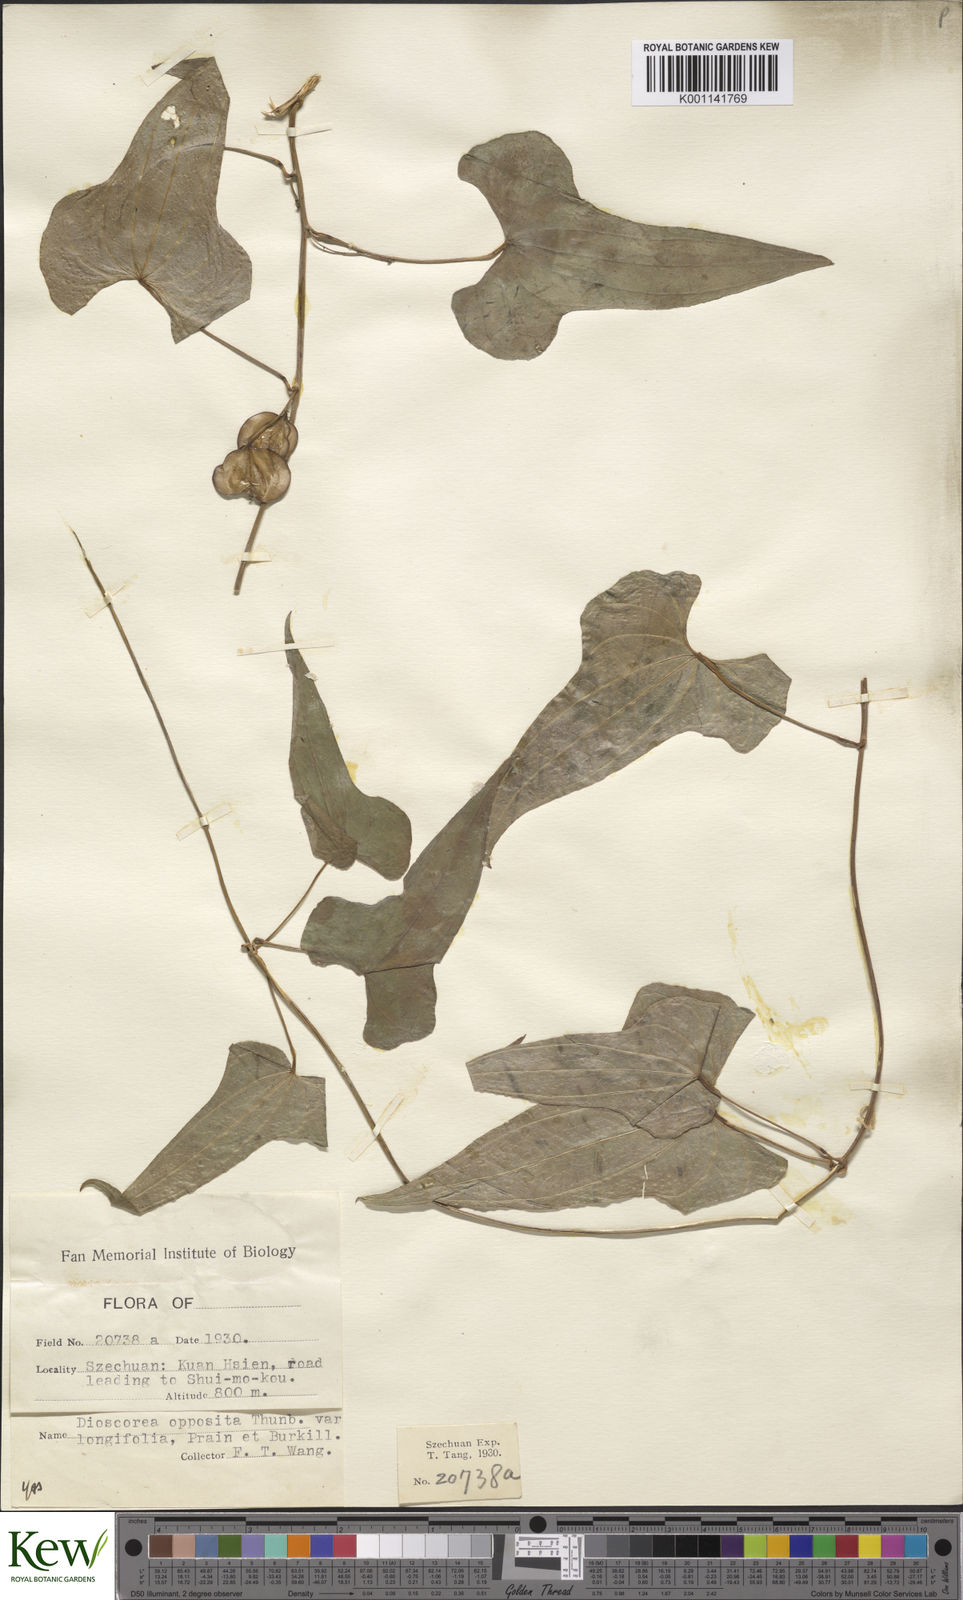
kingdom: Plantae
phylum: Tracheophyta
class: Liliopsida
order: Dioscoreales
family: Dioscoreaceae
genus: Dioscorea
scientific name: Dioscorea oppositifolia
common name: Chinese yam
